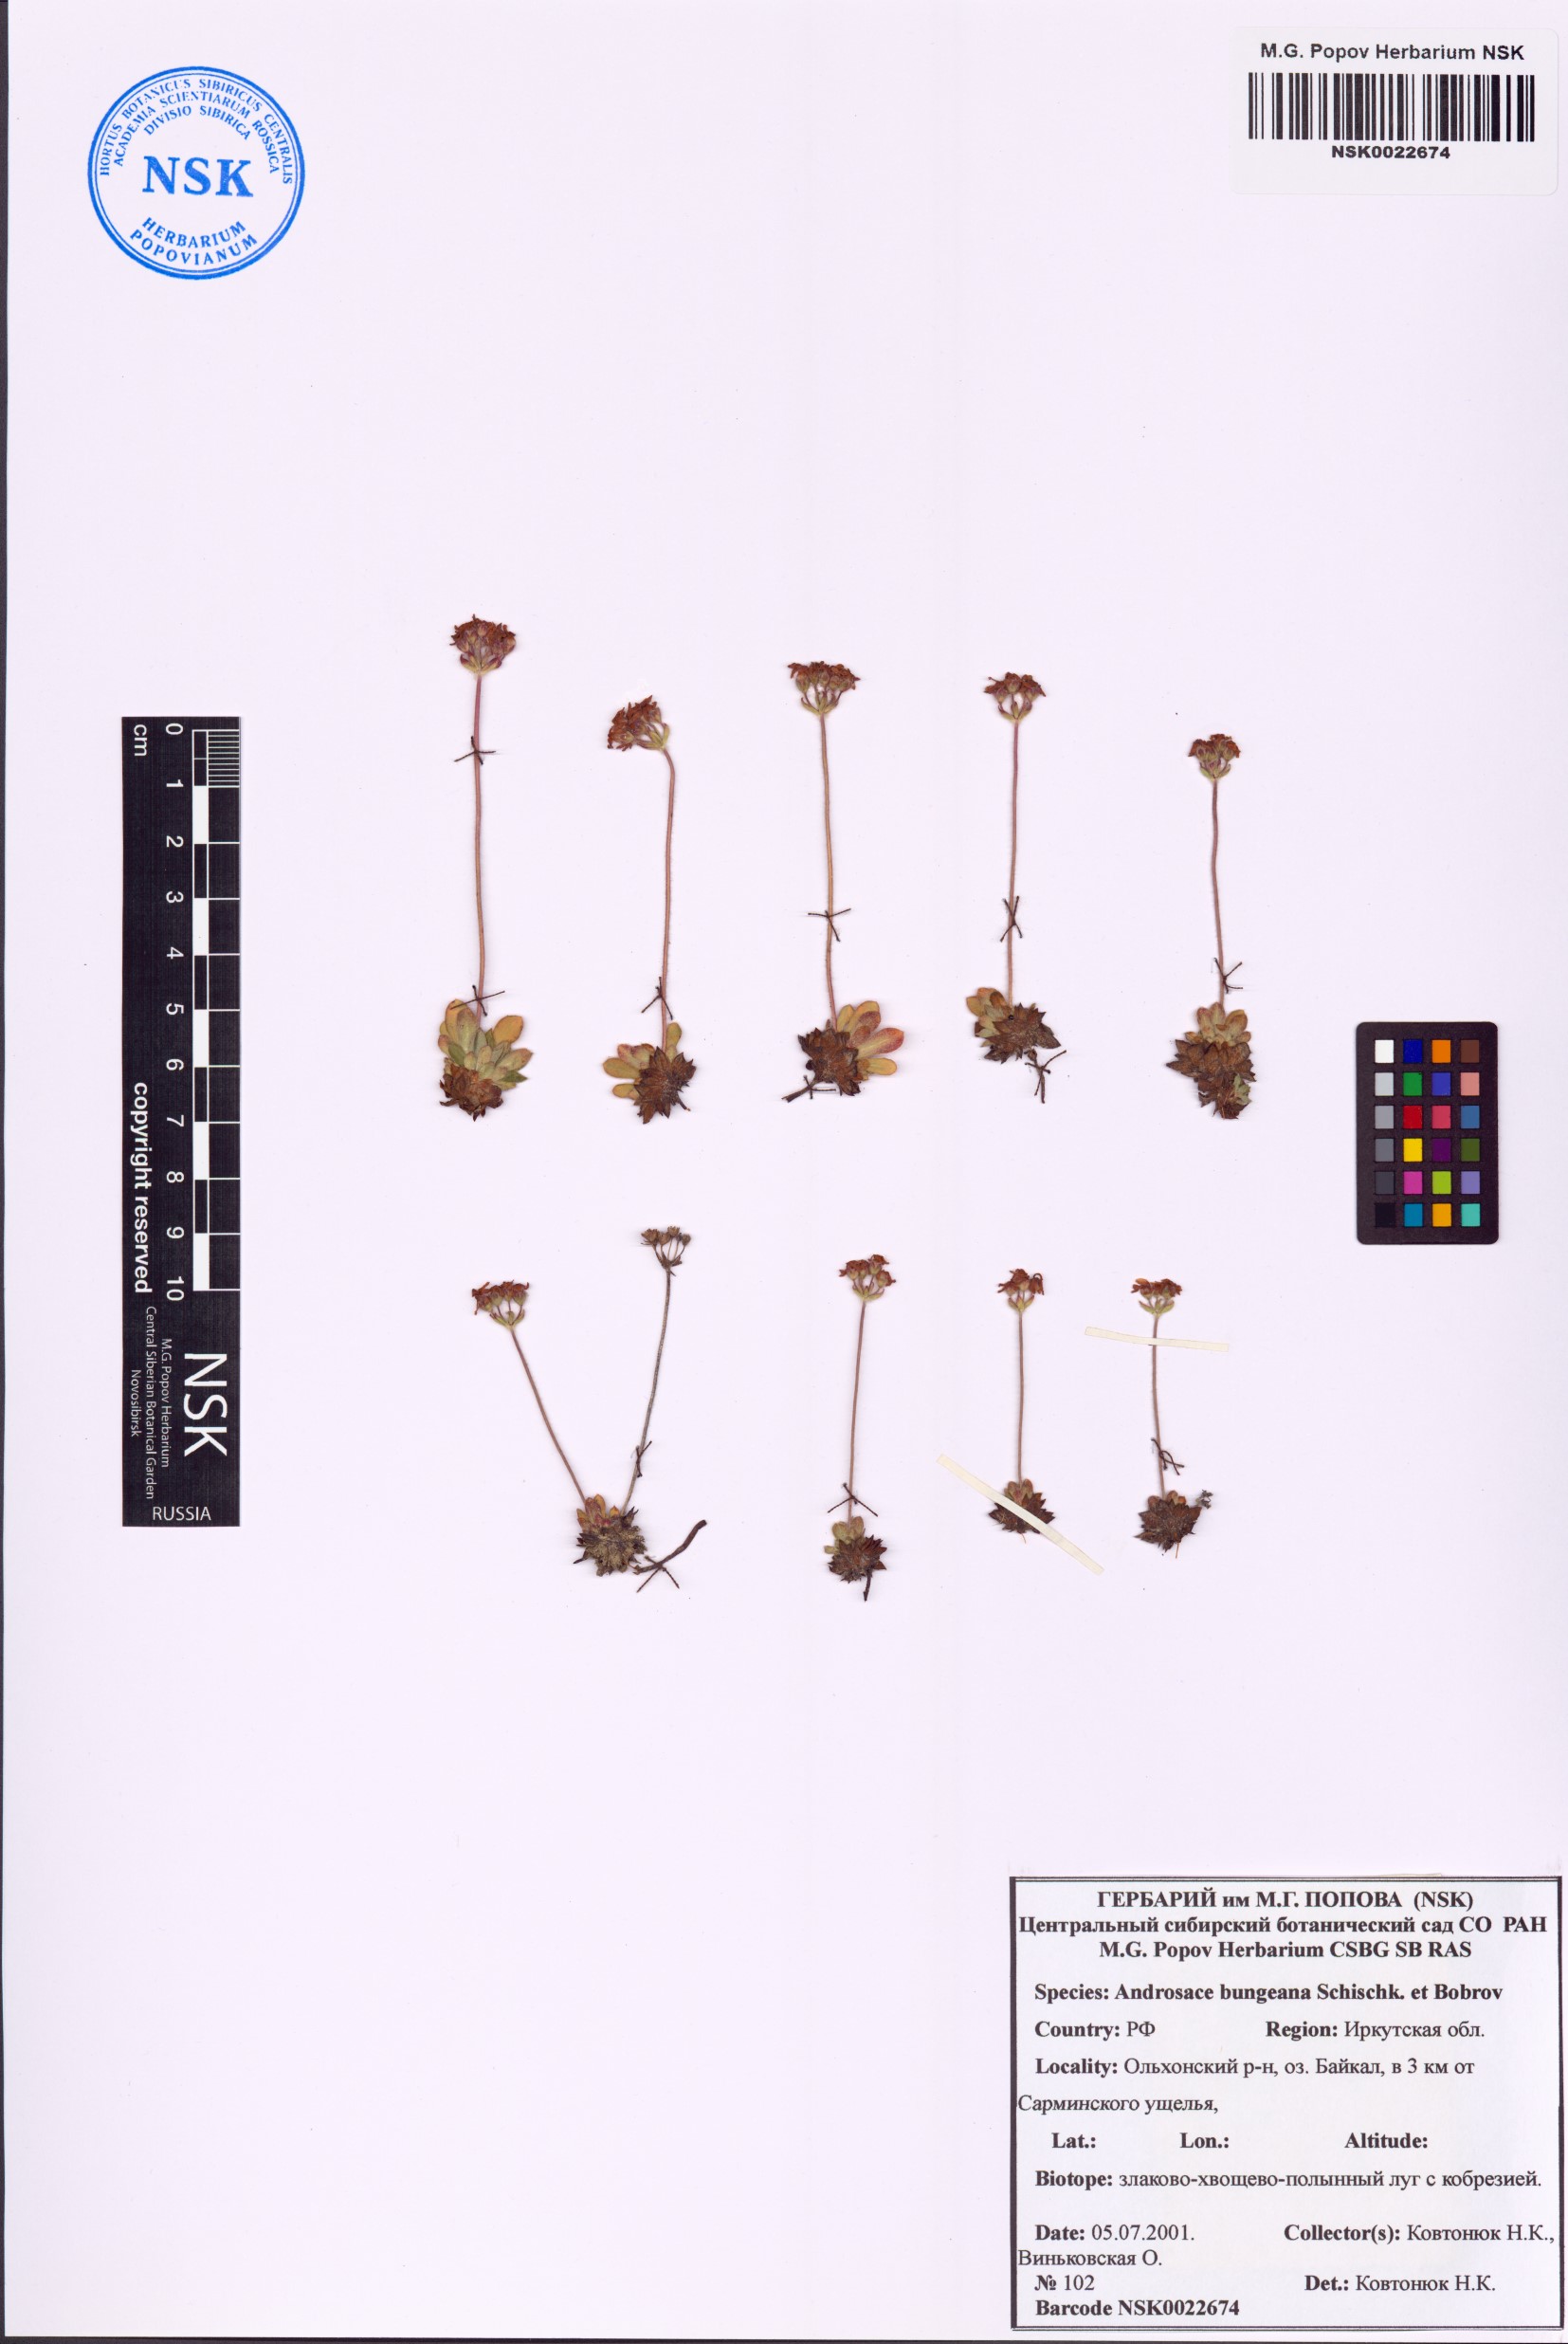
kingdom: Plantae
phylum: Tracheophyta
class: Magnoliopsida
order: Ericales
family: Primulaceae
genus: Androsace
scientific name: Androsace bungeana
